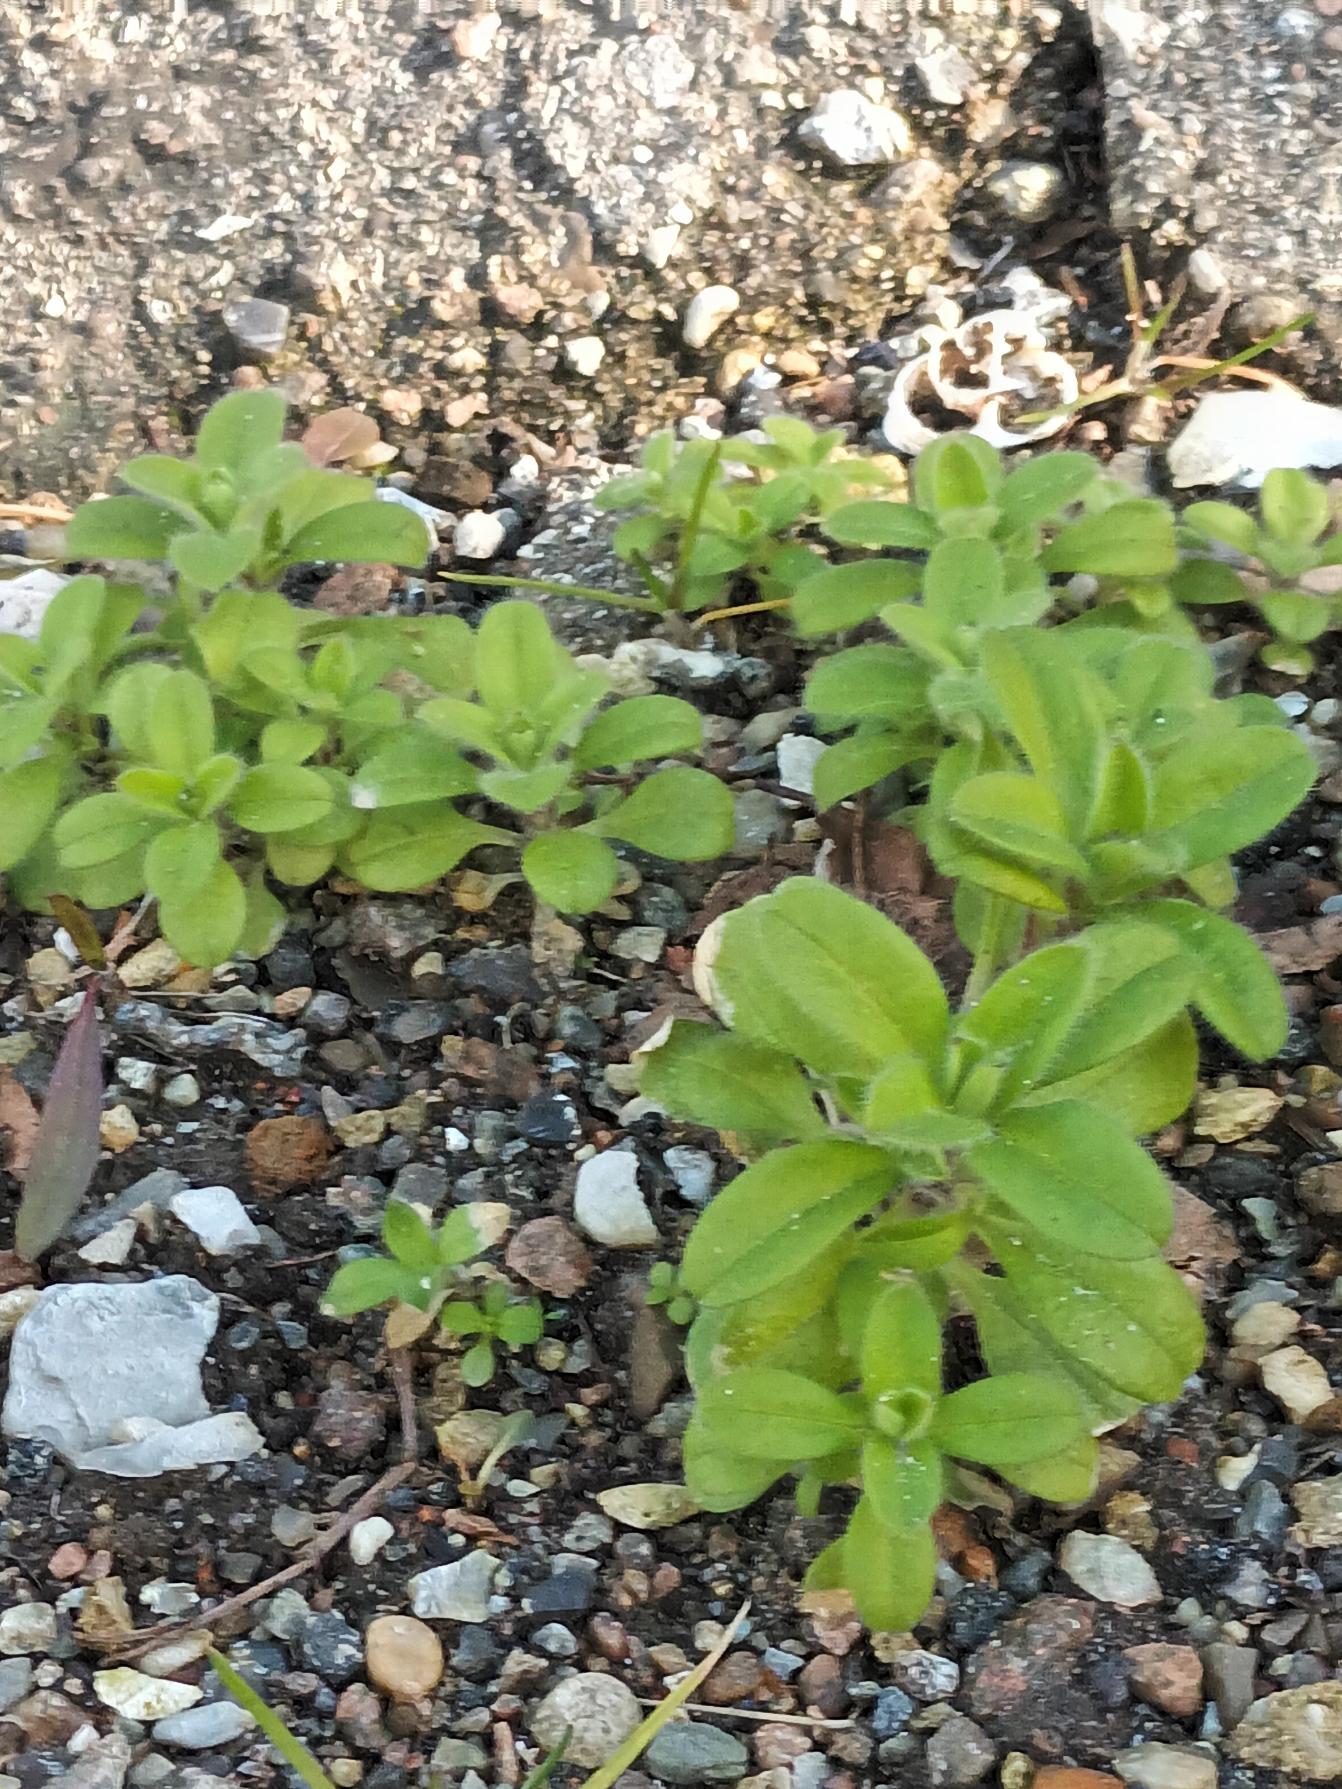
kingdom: Plantae
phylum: Tracheophyta
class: Magnoliopsida
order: Caryophyllales
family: Caryophyllaceae
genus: Cerastium
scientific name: Cerastium glomeratum
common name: Opret hønsetarm
